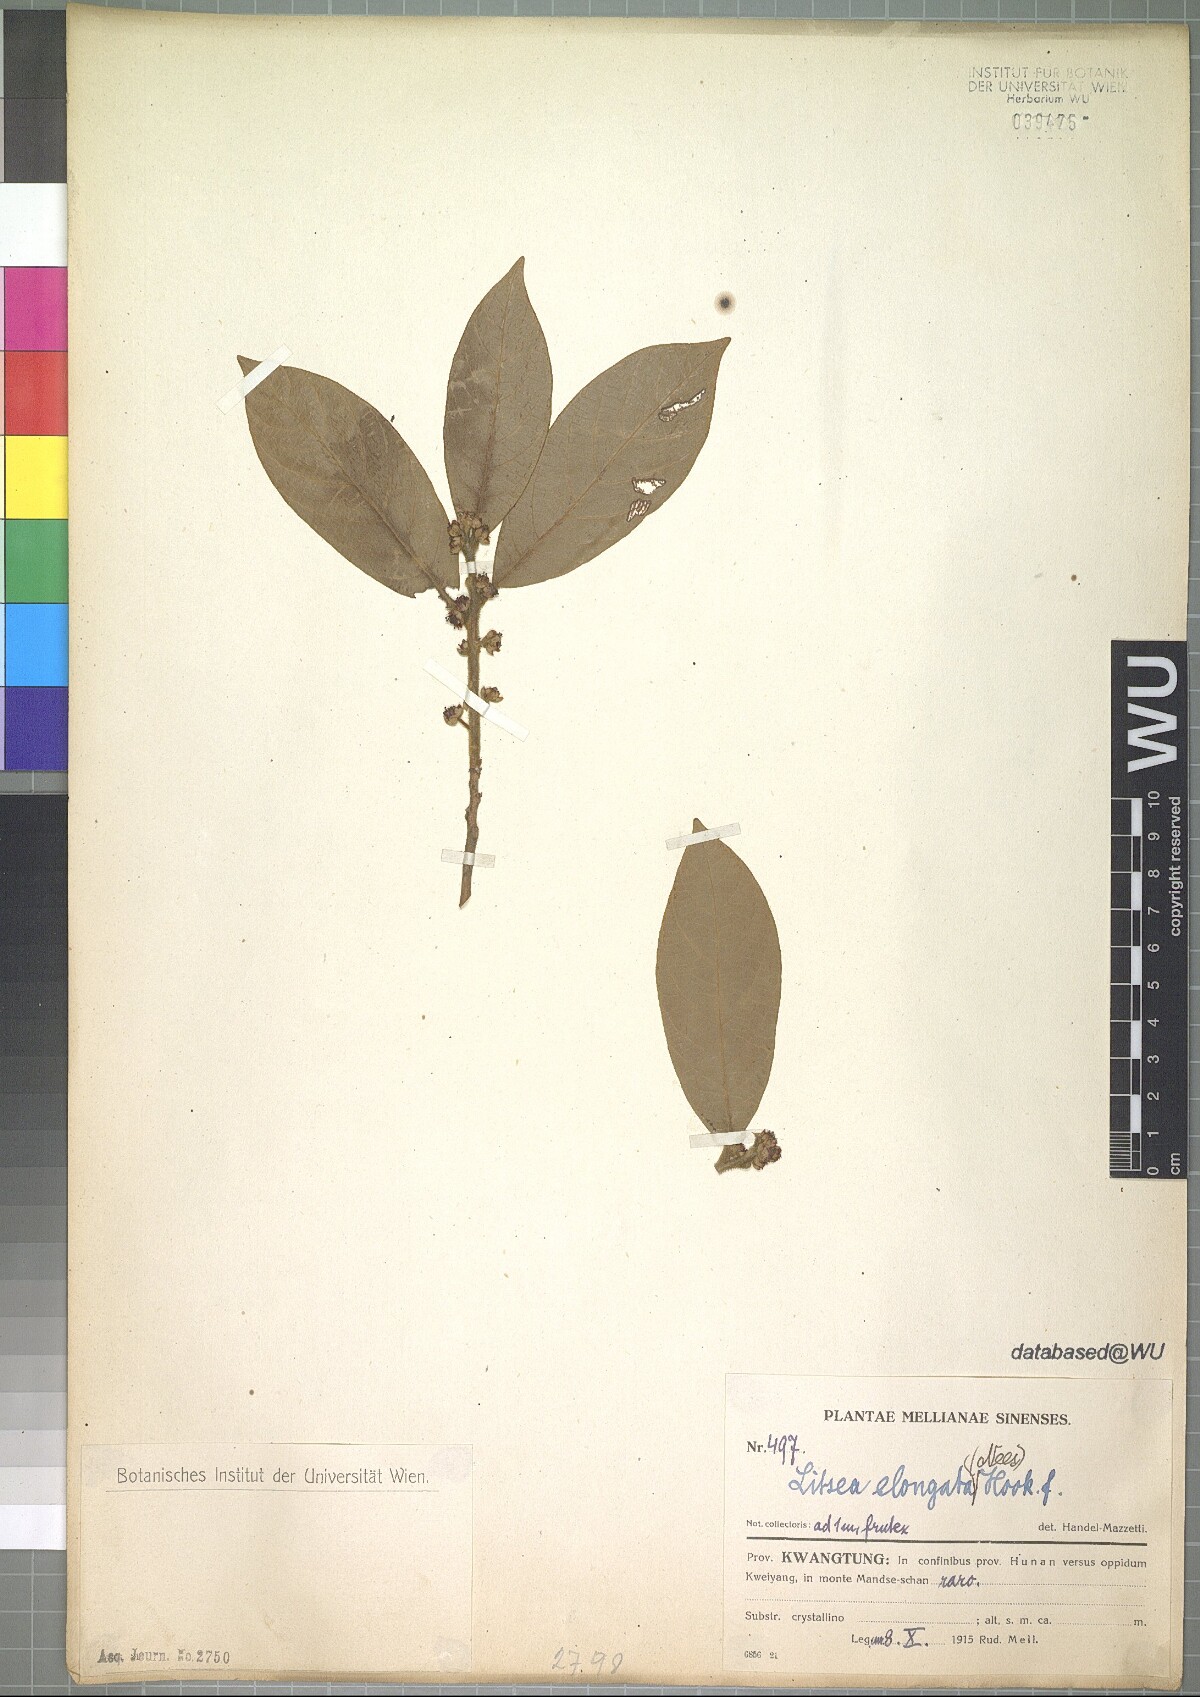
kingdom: Plantae
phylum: Tracheophyta
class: Magnoliopsida
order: Laurales
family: Lauraceae
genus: Litsea
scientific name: Litsea elongata
